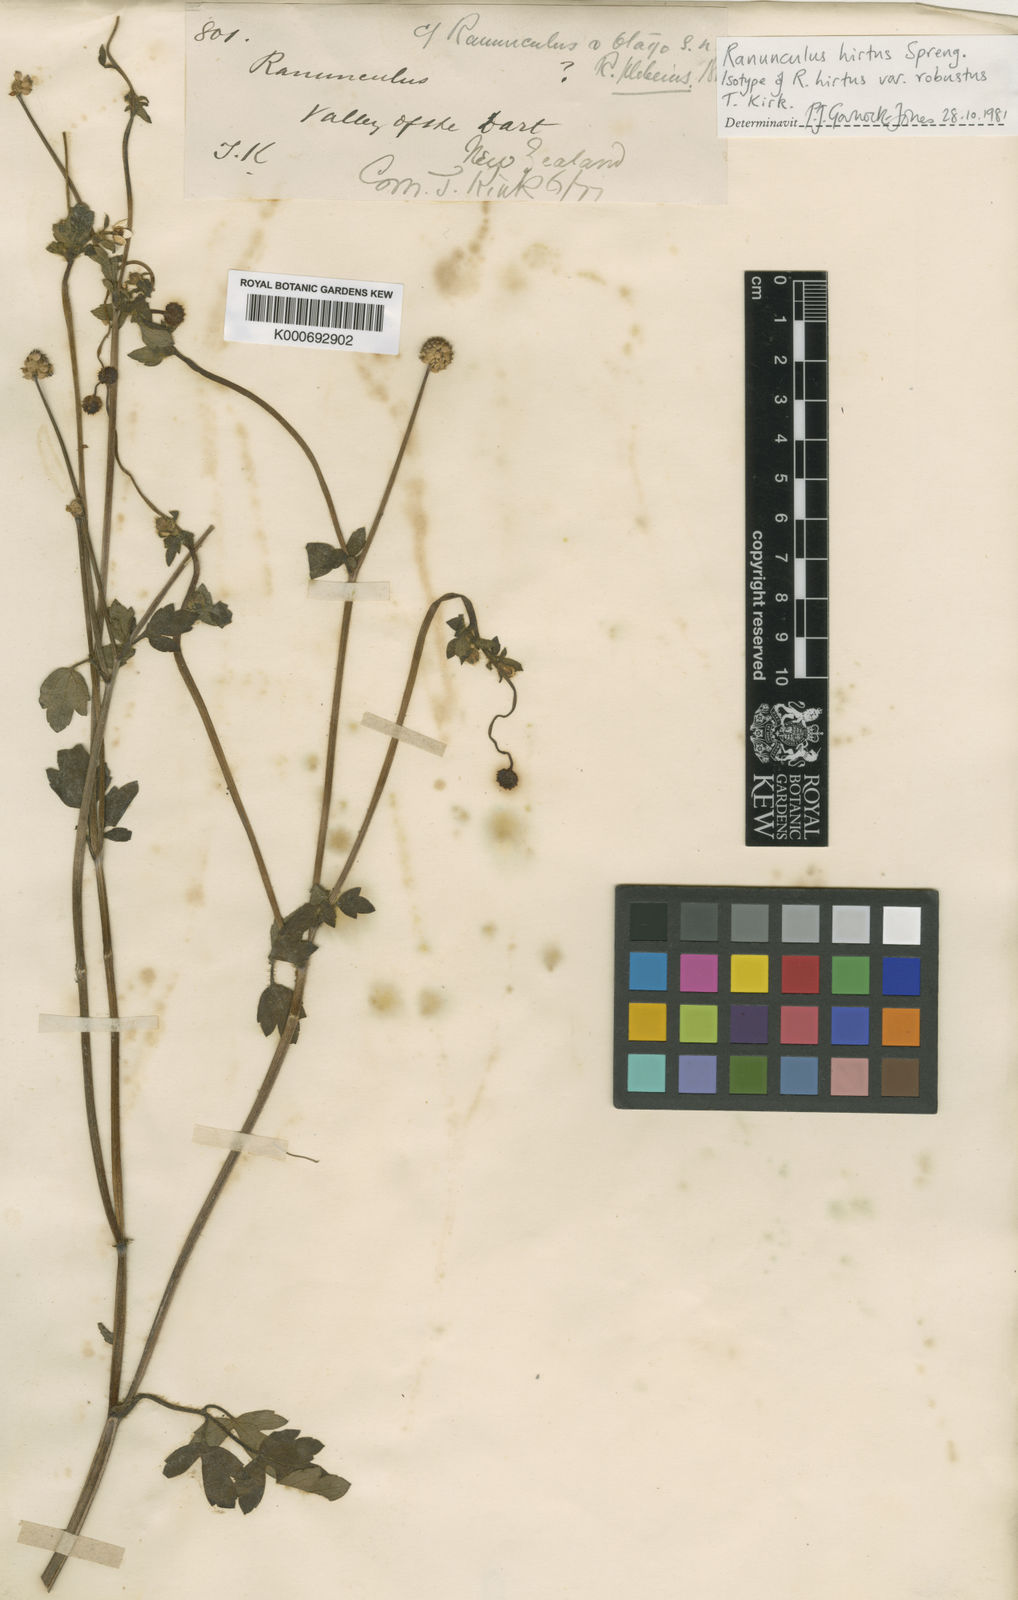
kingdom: Plantae
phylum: Tracheophyta
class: Magnoliopsida
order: Ranunculales
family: Ranunculaceae
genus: Ranunculus
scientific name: Ranunculus
